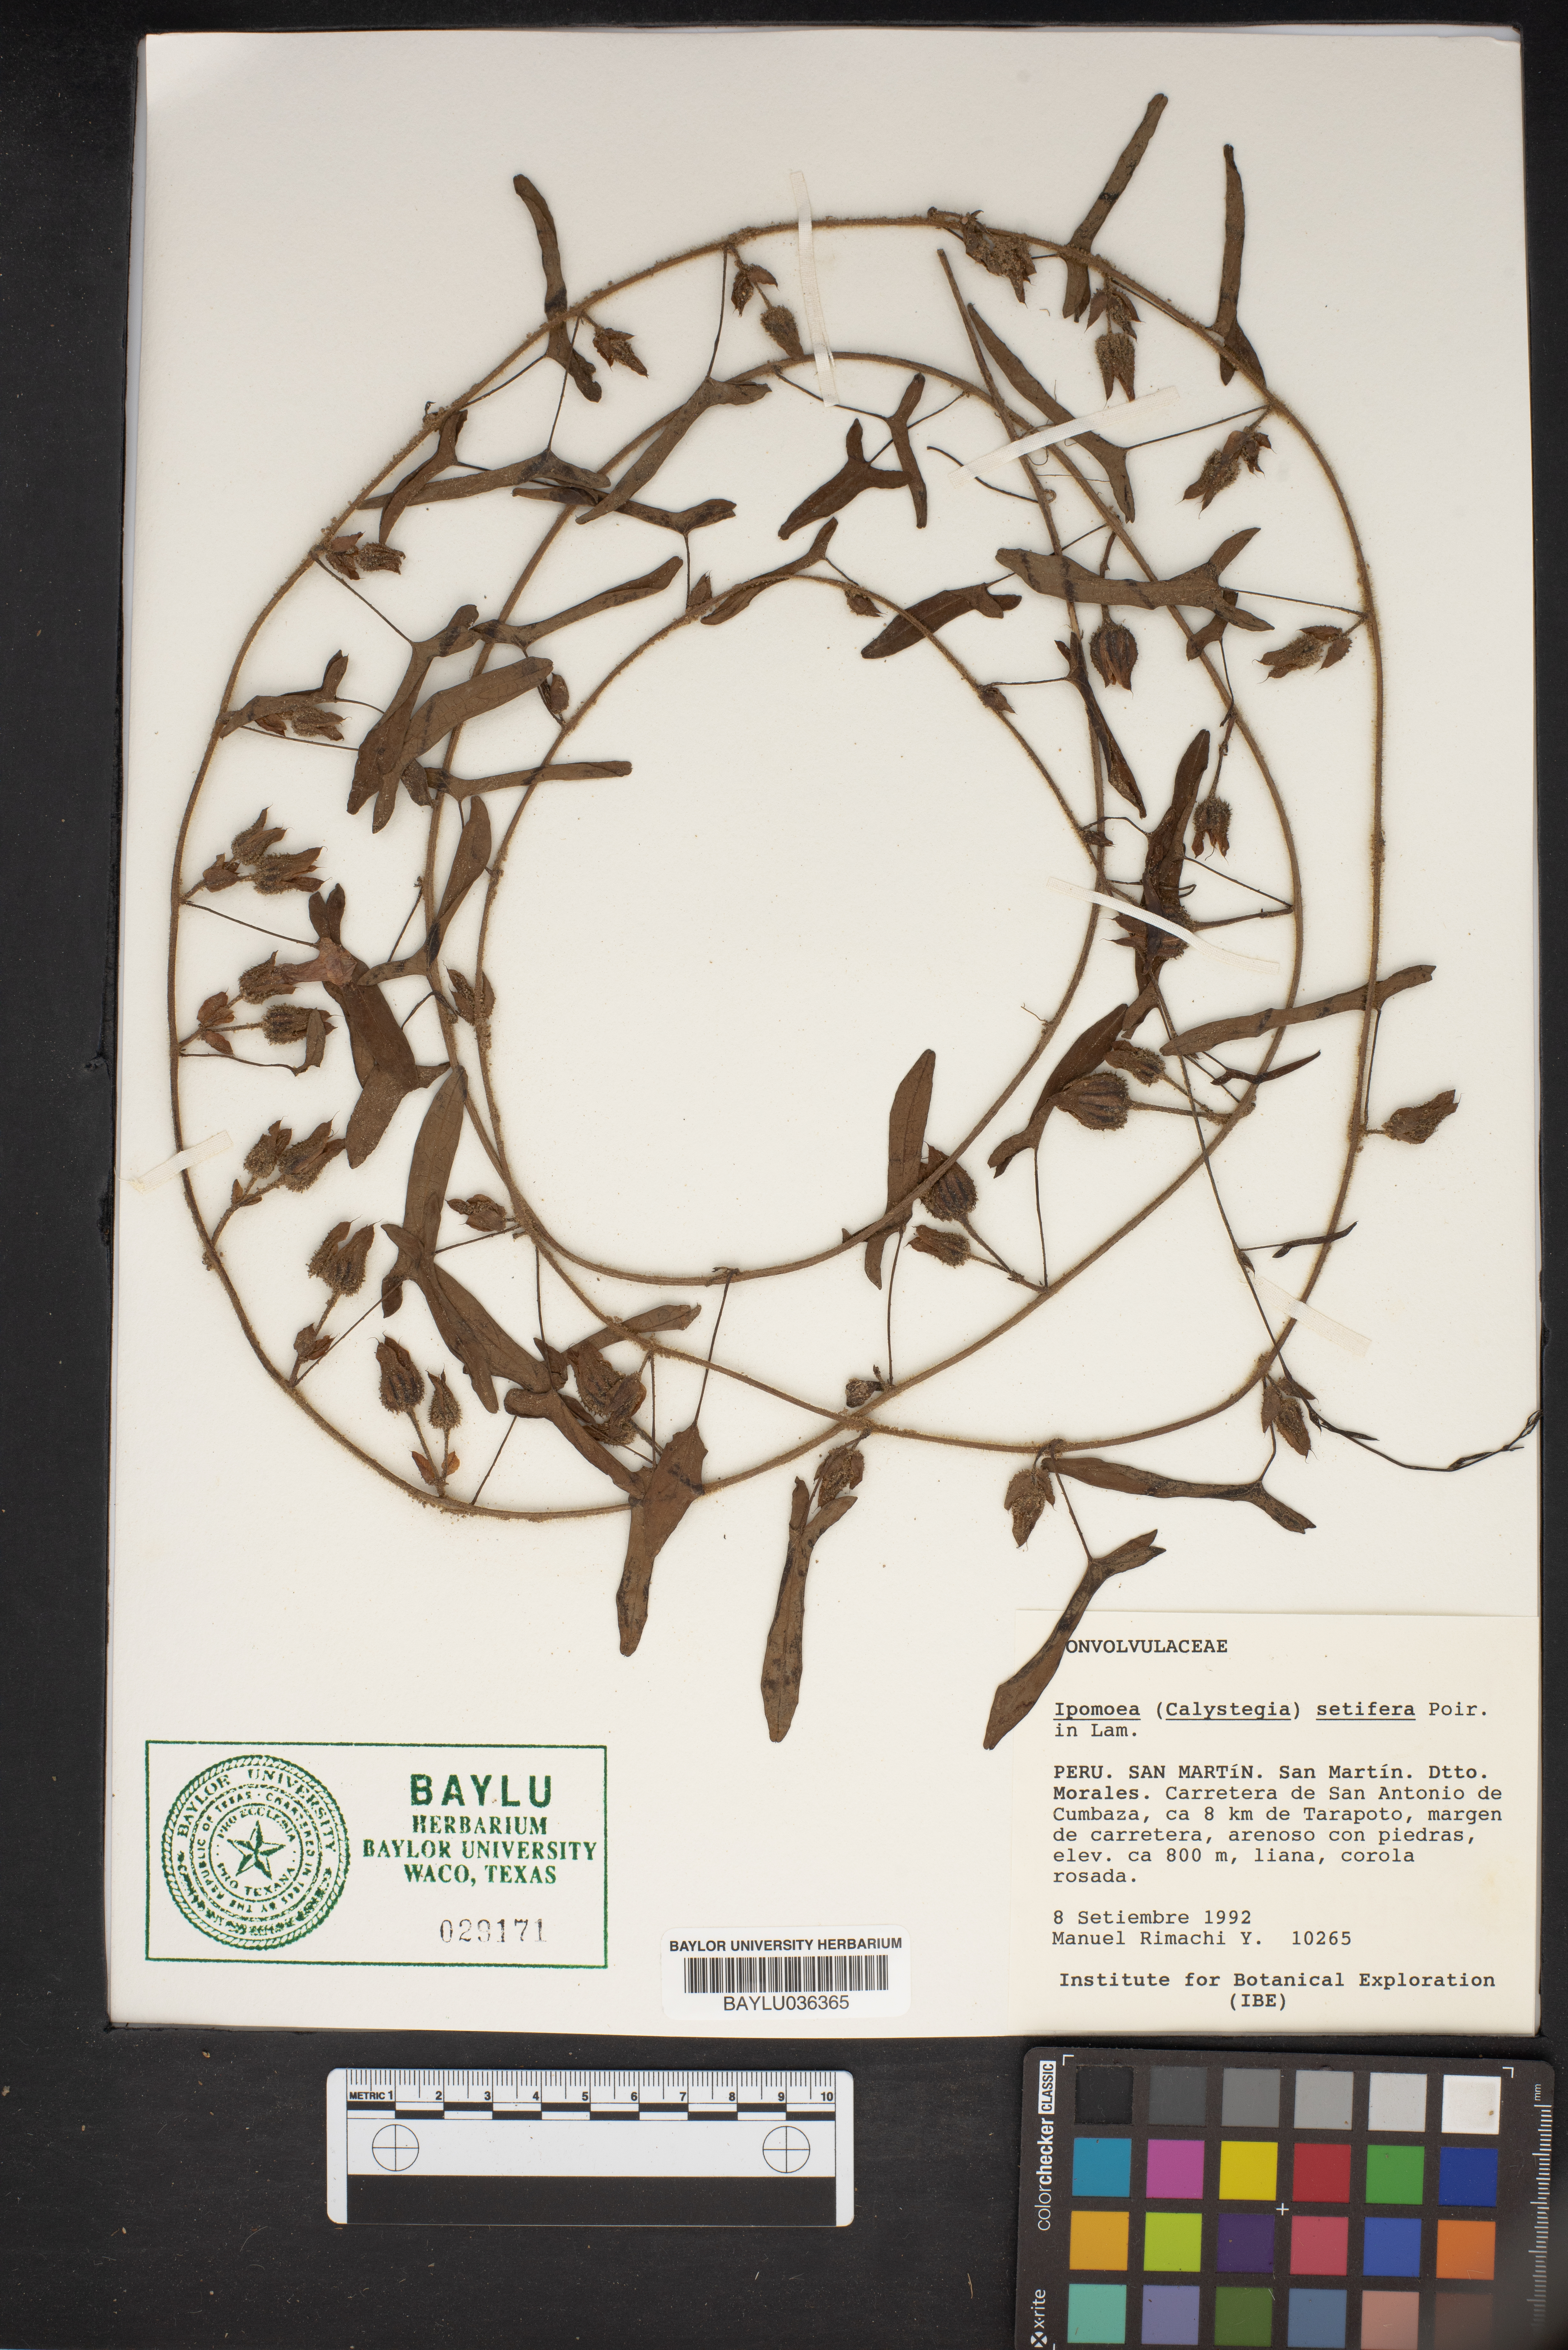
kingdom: Plantae
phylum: Tracheophyta
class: Magnoliopsida
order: Solanales
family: Convolvulaceae
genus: Ipomoea
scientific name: Ipomoea setifera
